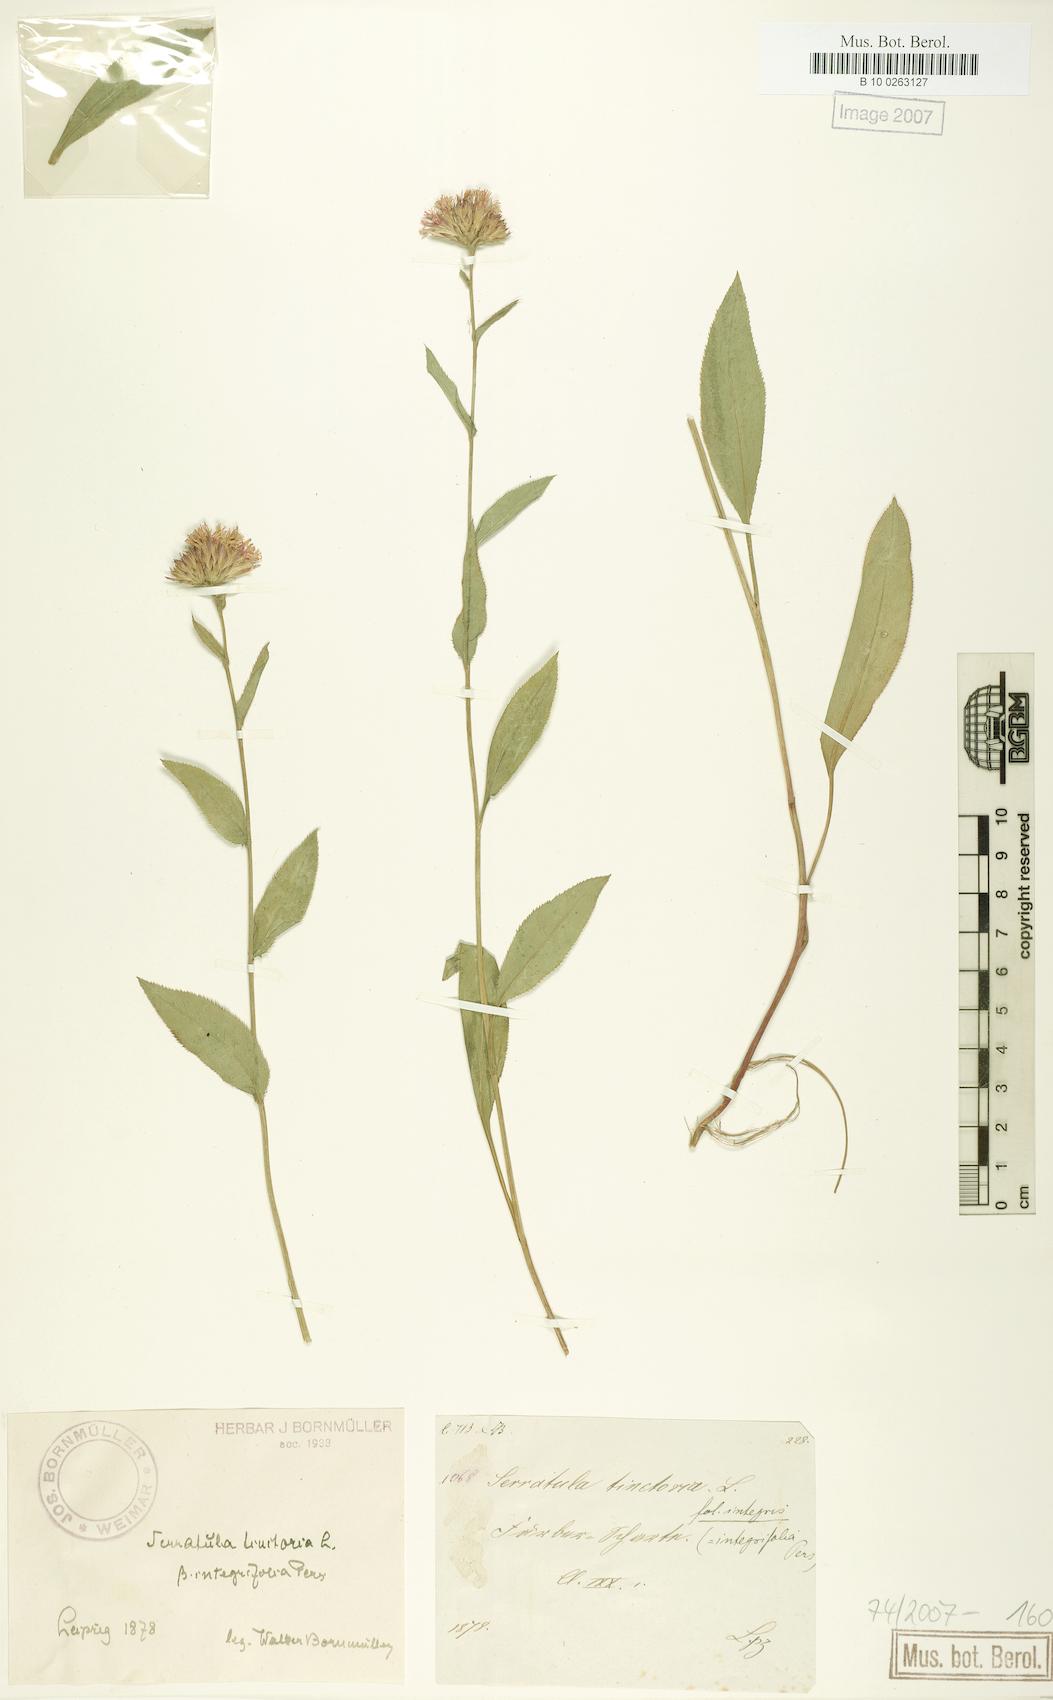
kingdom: Plantae
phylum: Tracheophyta
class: Magnoliopsida
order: Asterales
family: Asteraceae
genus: Serratula
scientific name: Serratula tinctoria
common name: Saw-wort
